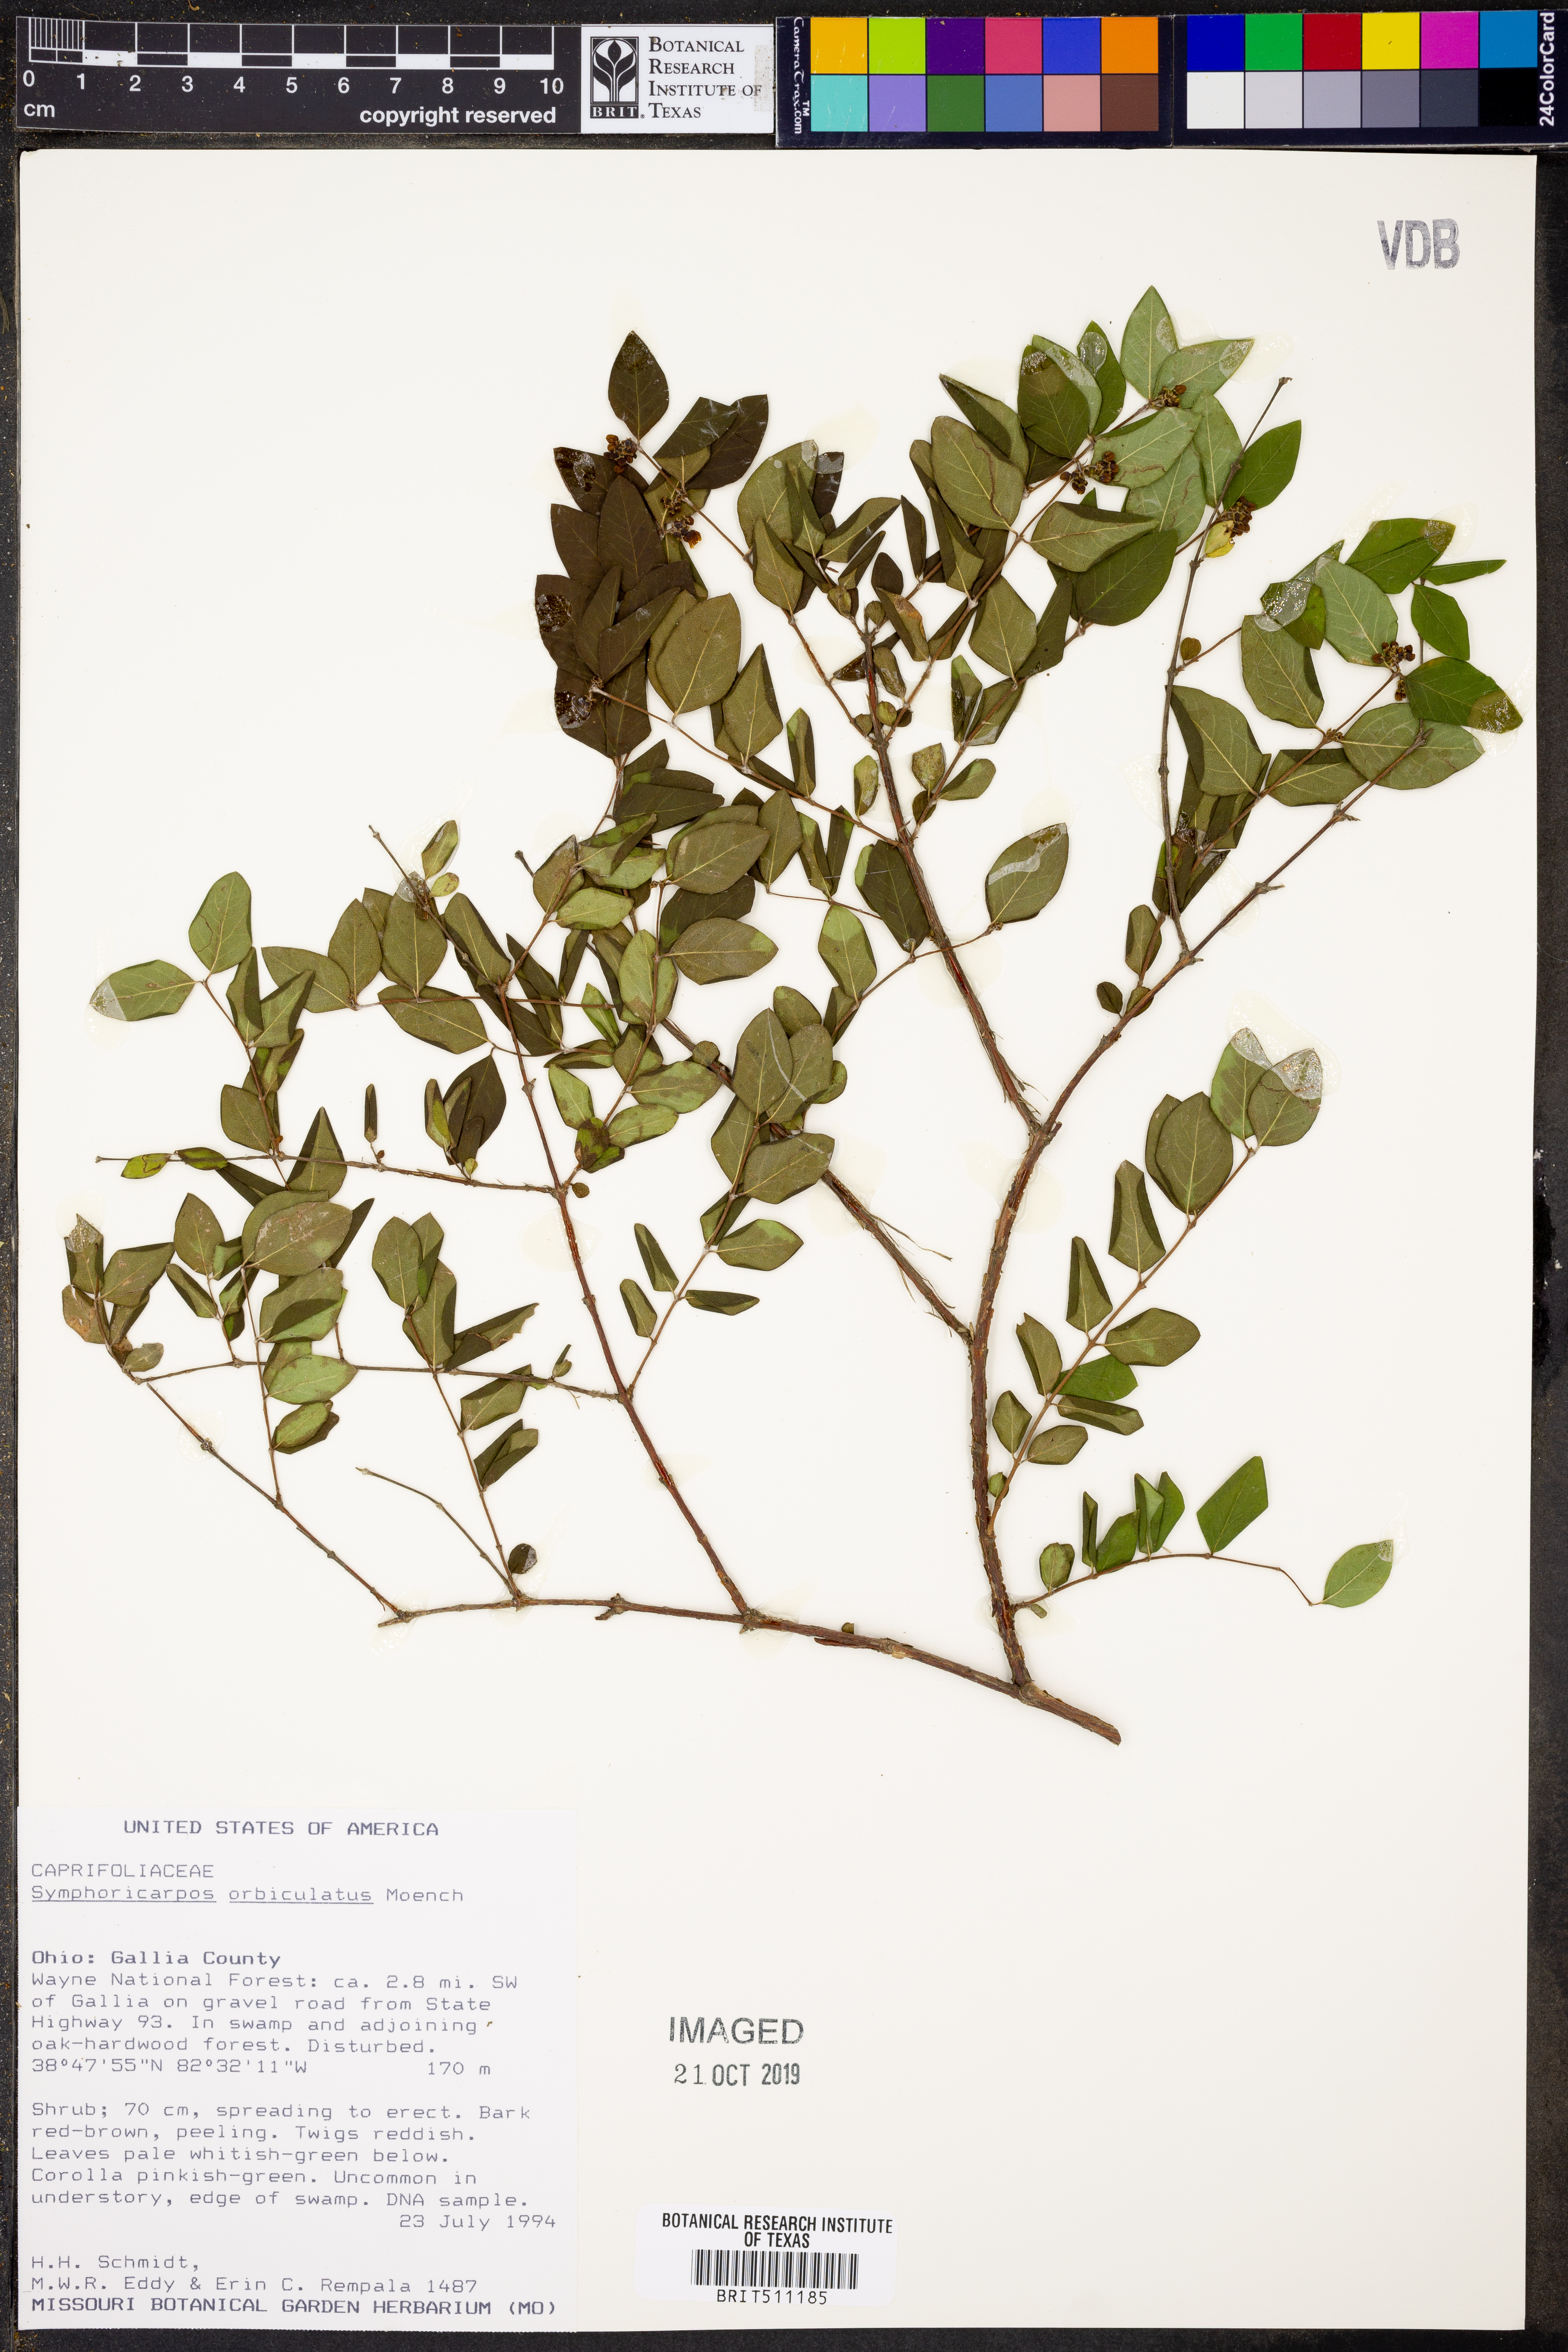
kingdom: Plantae
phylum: Tracheophyta
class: Magnoliopsida
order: Dipsacales
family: Caprifoliaceae
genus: Symphoricarpos
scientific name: Symphoricarpos orbiculatus
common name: Coralberry
